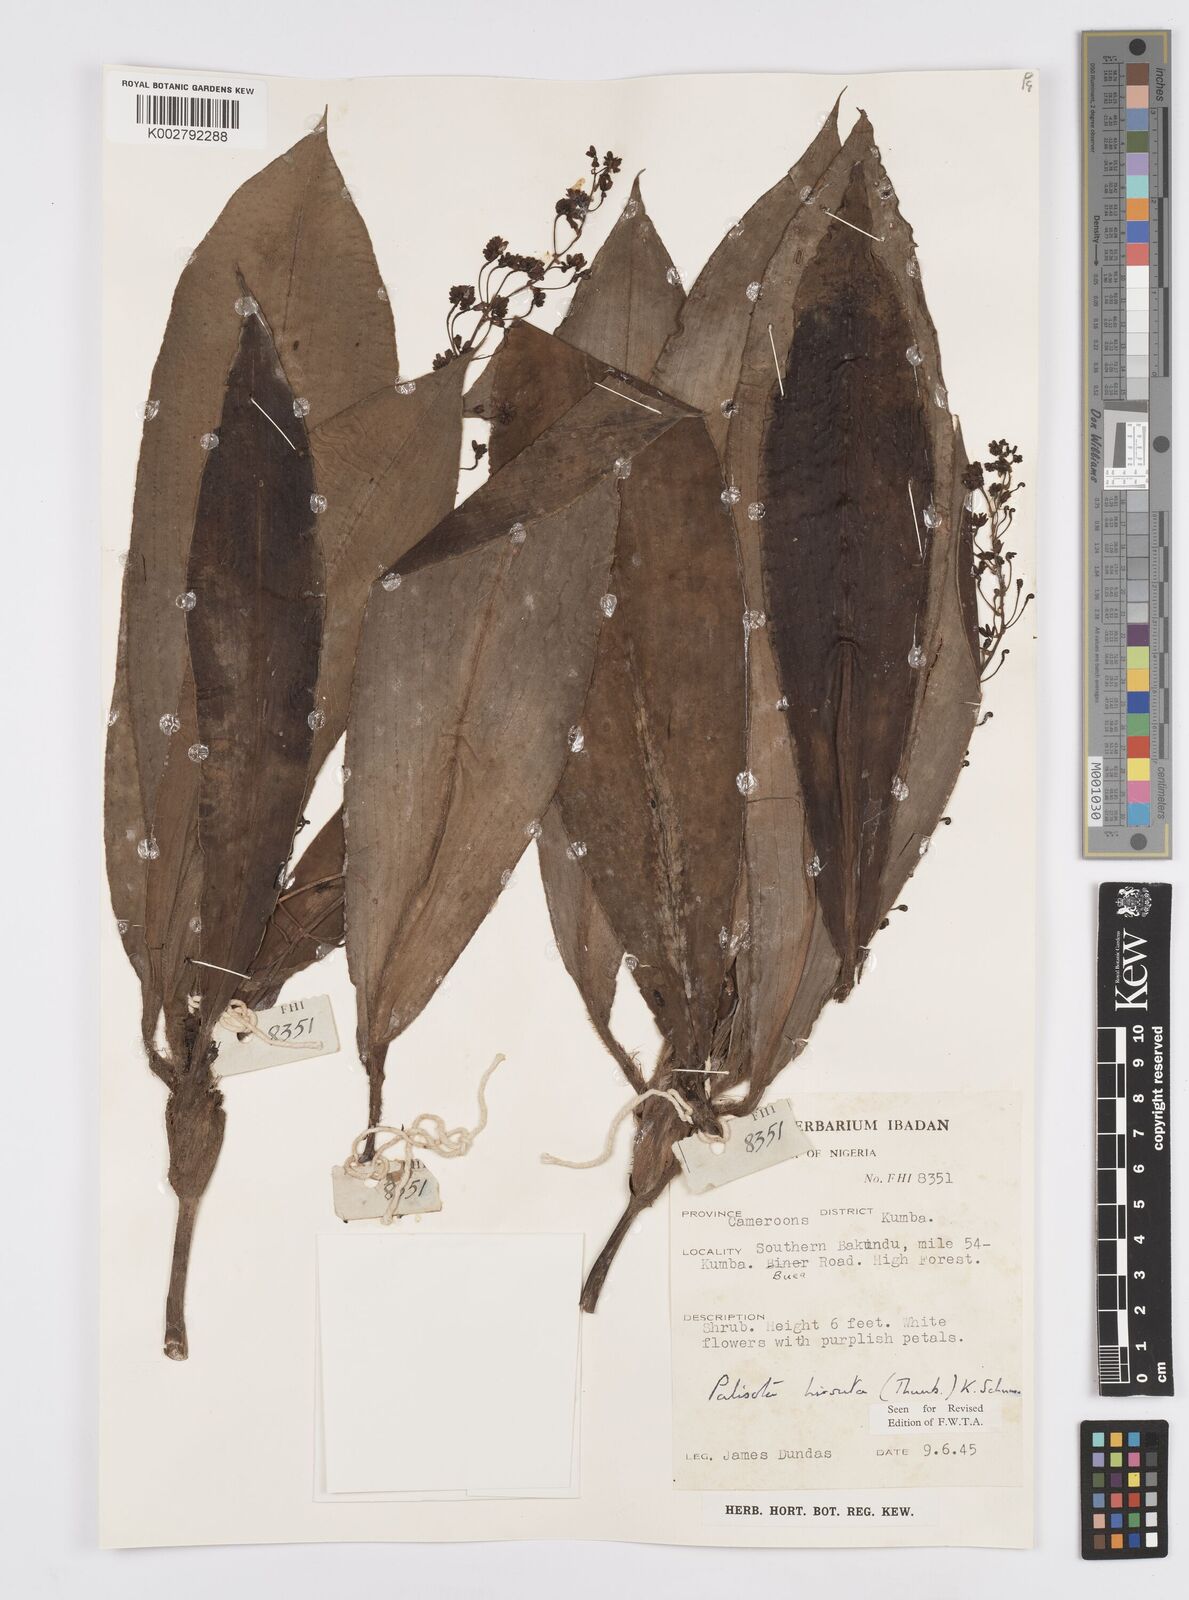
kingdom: Plantae
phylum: Tracheophyta
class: Liliopsida
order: Commelinales
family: Commelinaceae
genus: Palisota
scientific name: Palisota hirsuta
